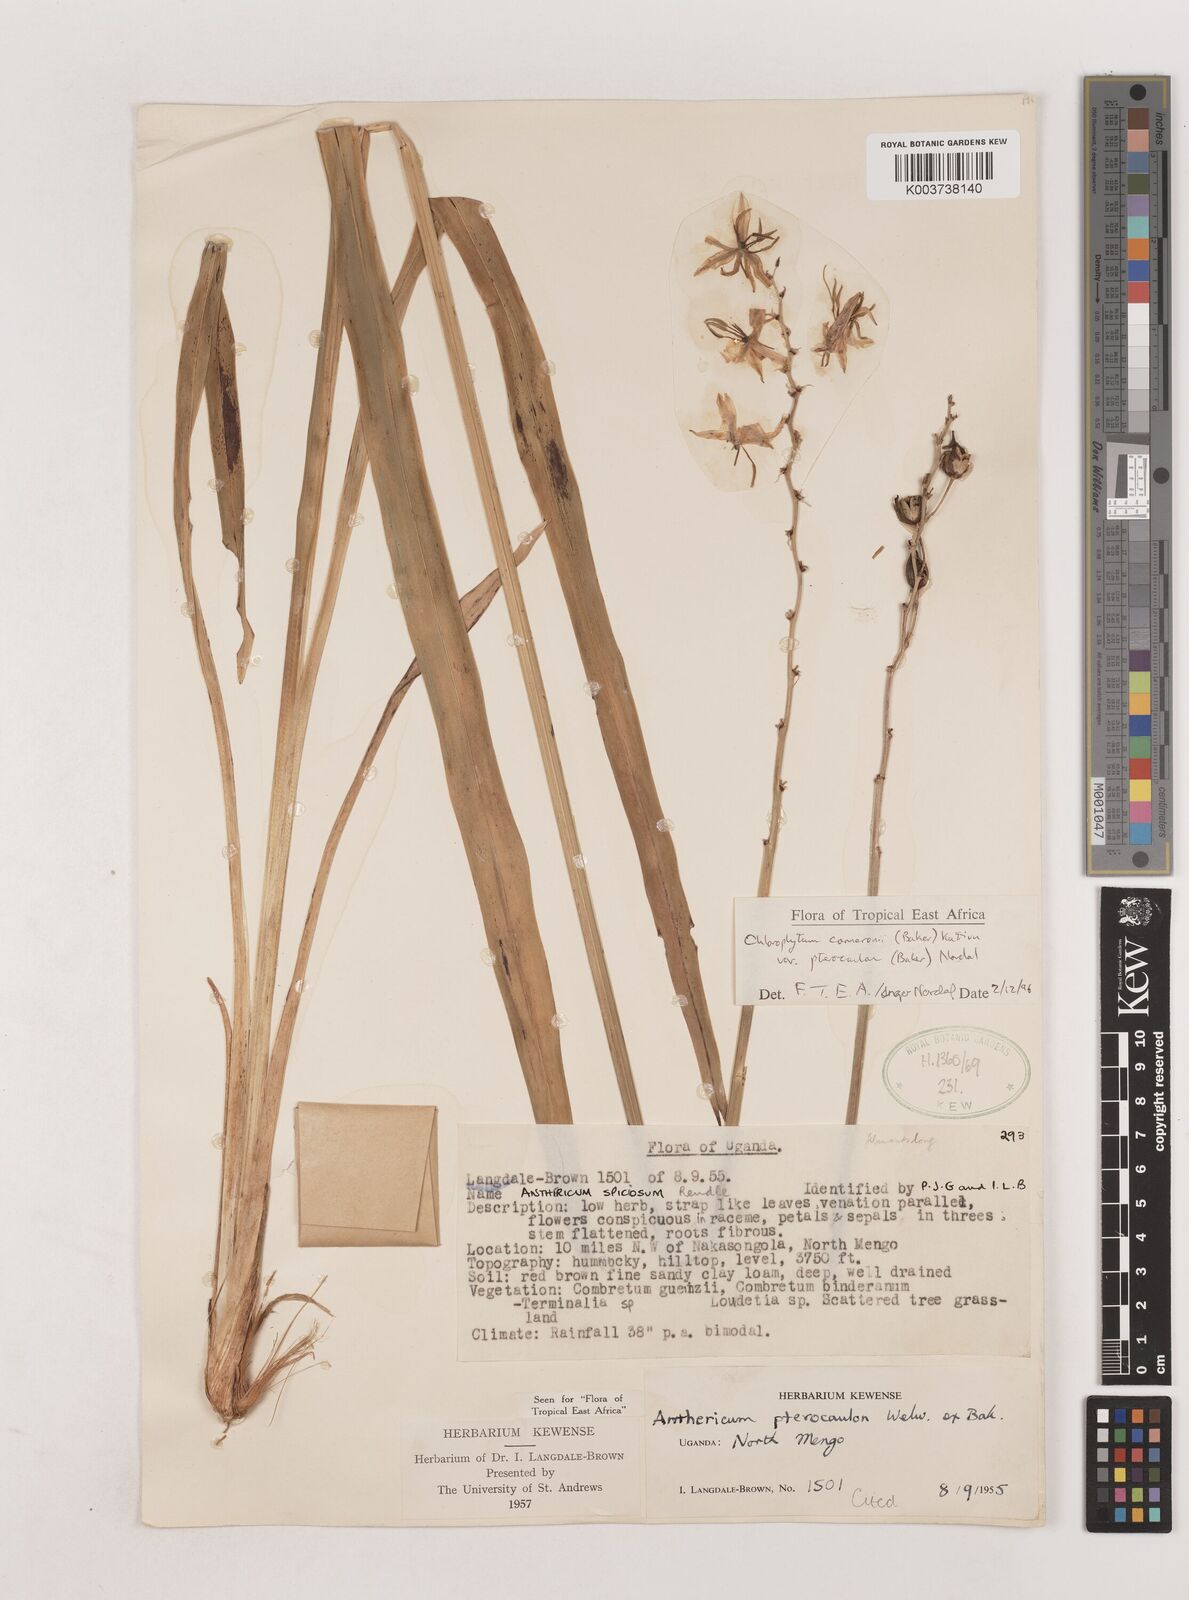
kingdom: Plantae
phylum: Tracheophyta
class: Liliopsida
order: Asparagales
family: Asparagaceae
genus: Chlorophytum
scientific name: Chlorophytum cameronii
